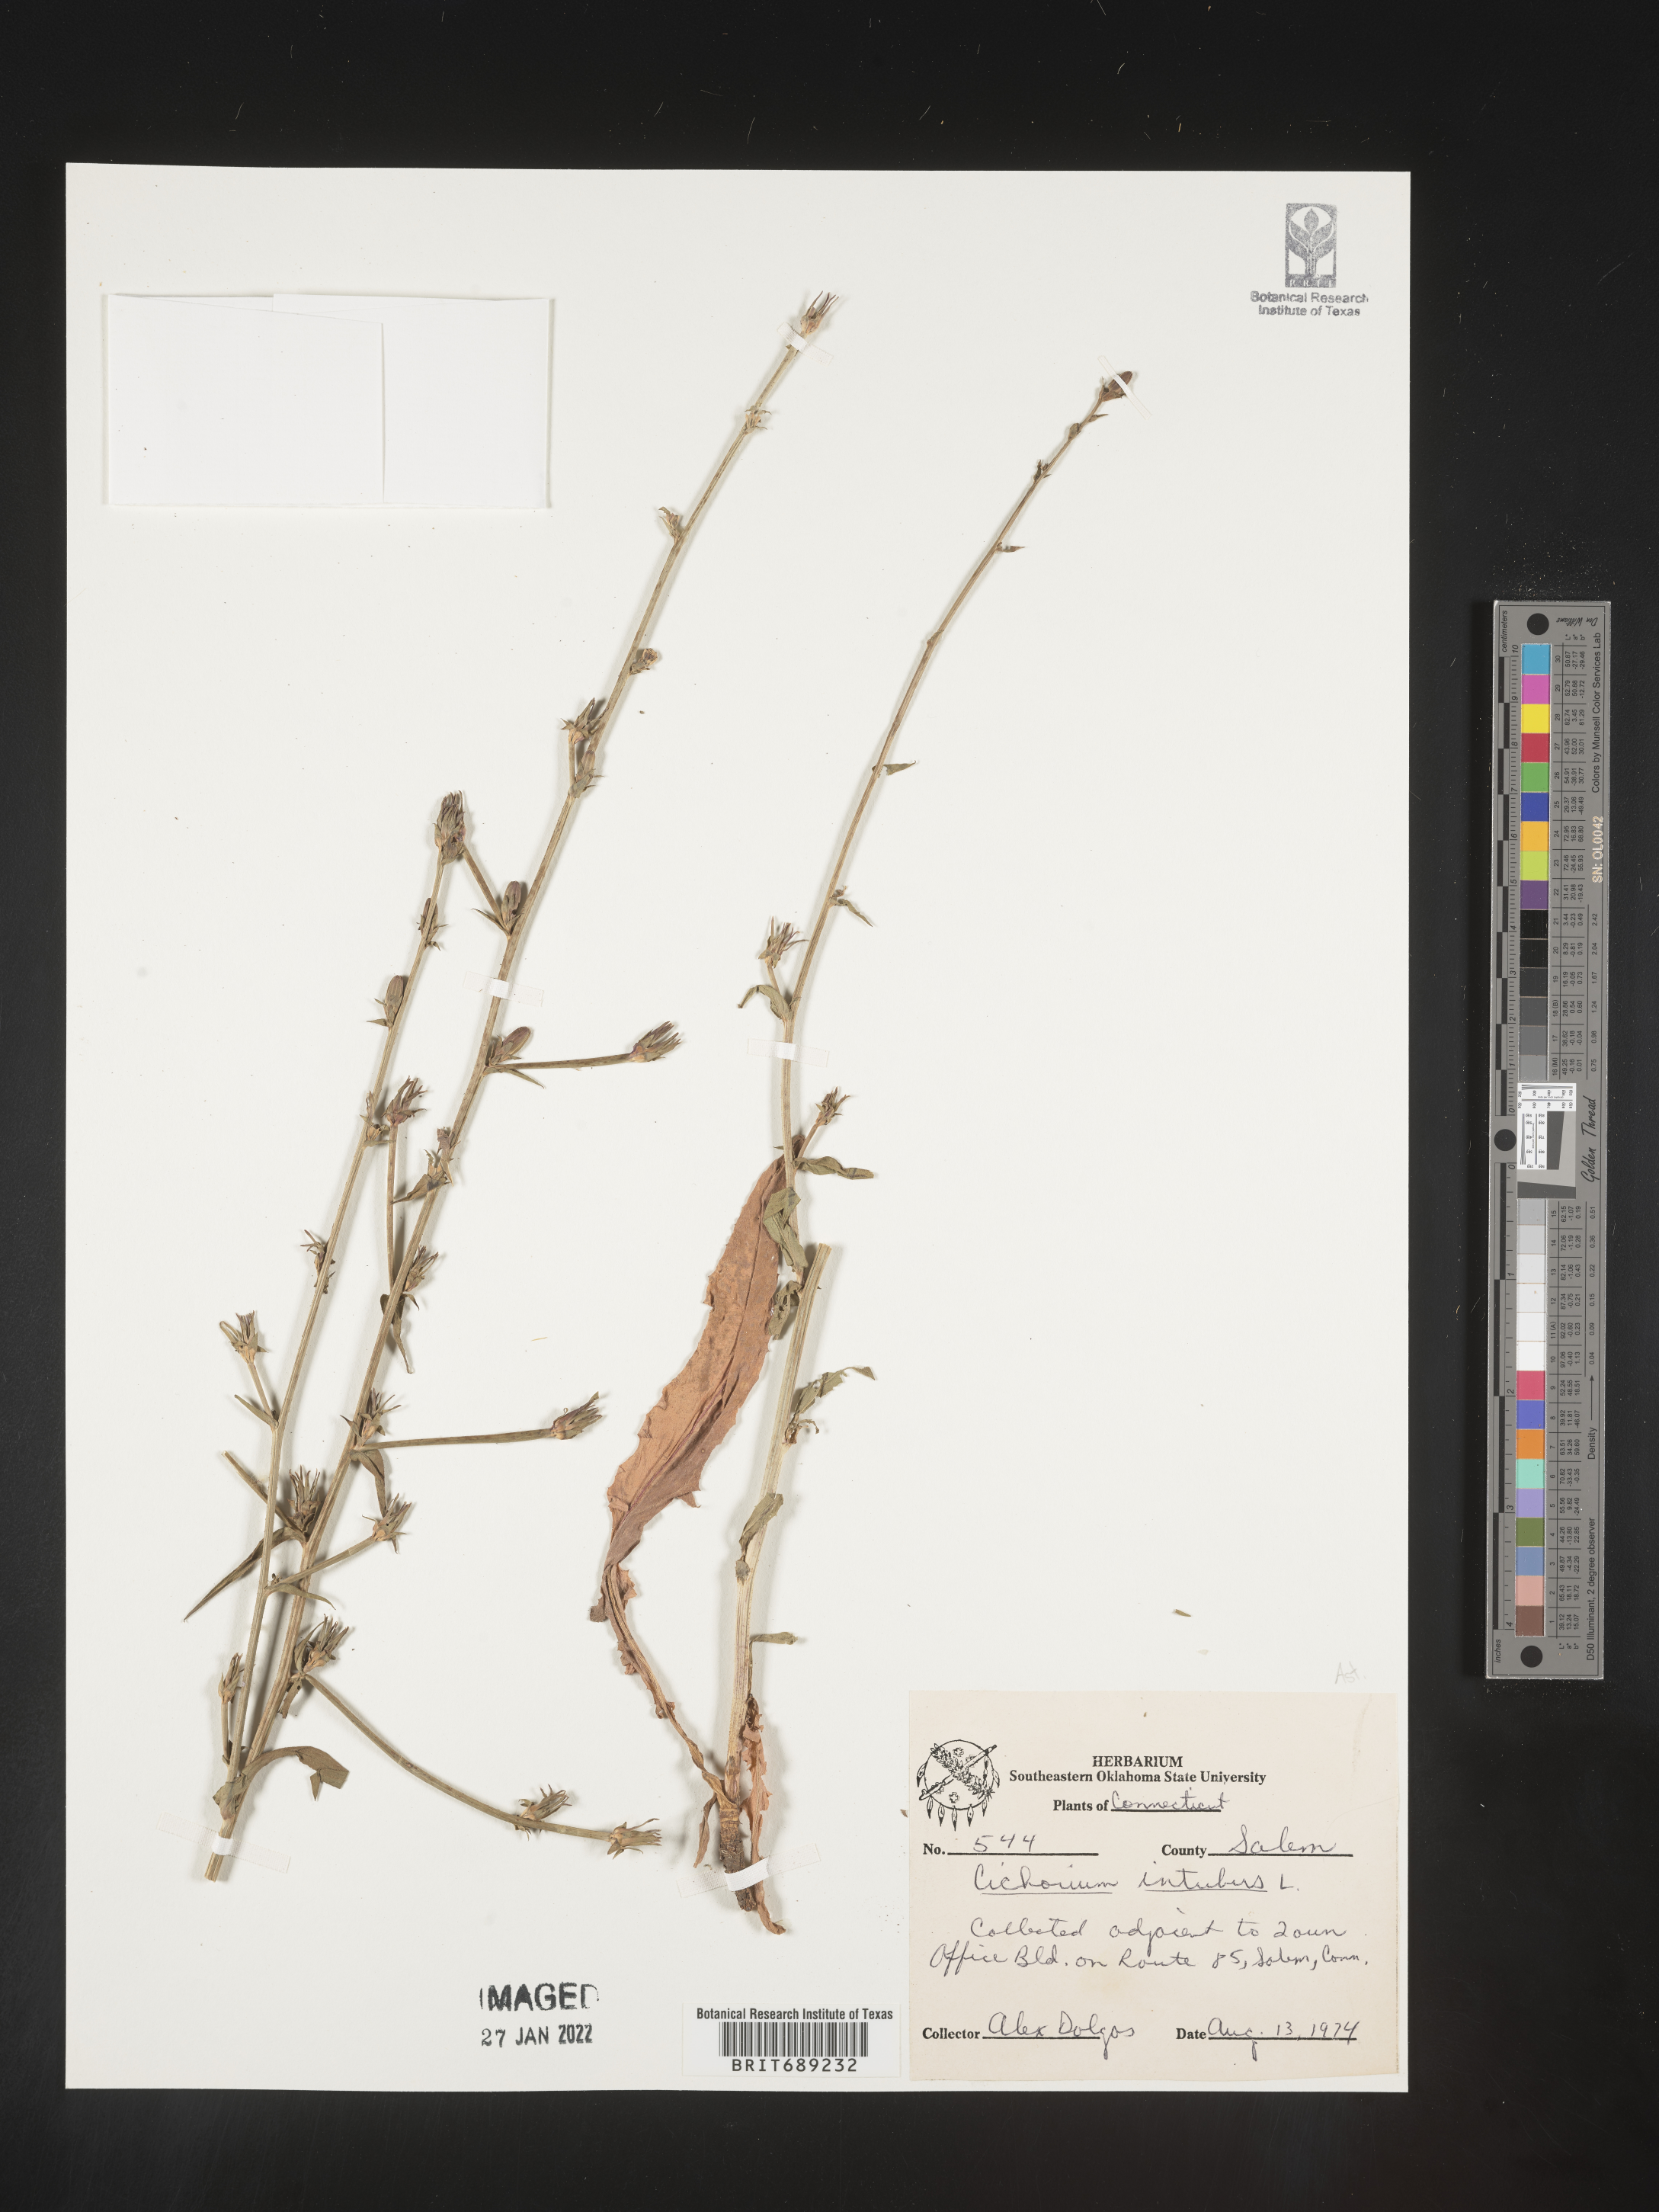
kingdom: Plantae
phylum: Tracheophyta
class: Magnoliopsida
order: Asterales
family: Asteraceae
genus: Cichorium
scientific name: Cichorium intybus
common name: Chicory
